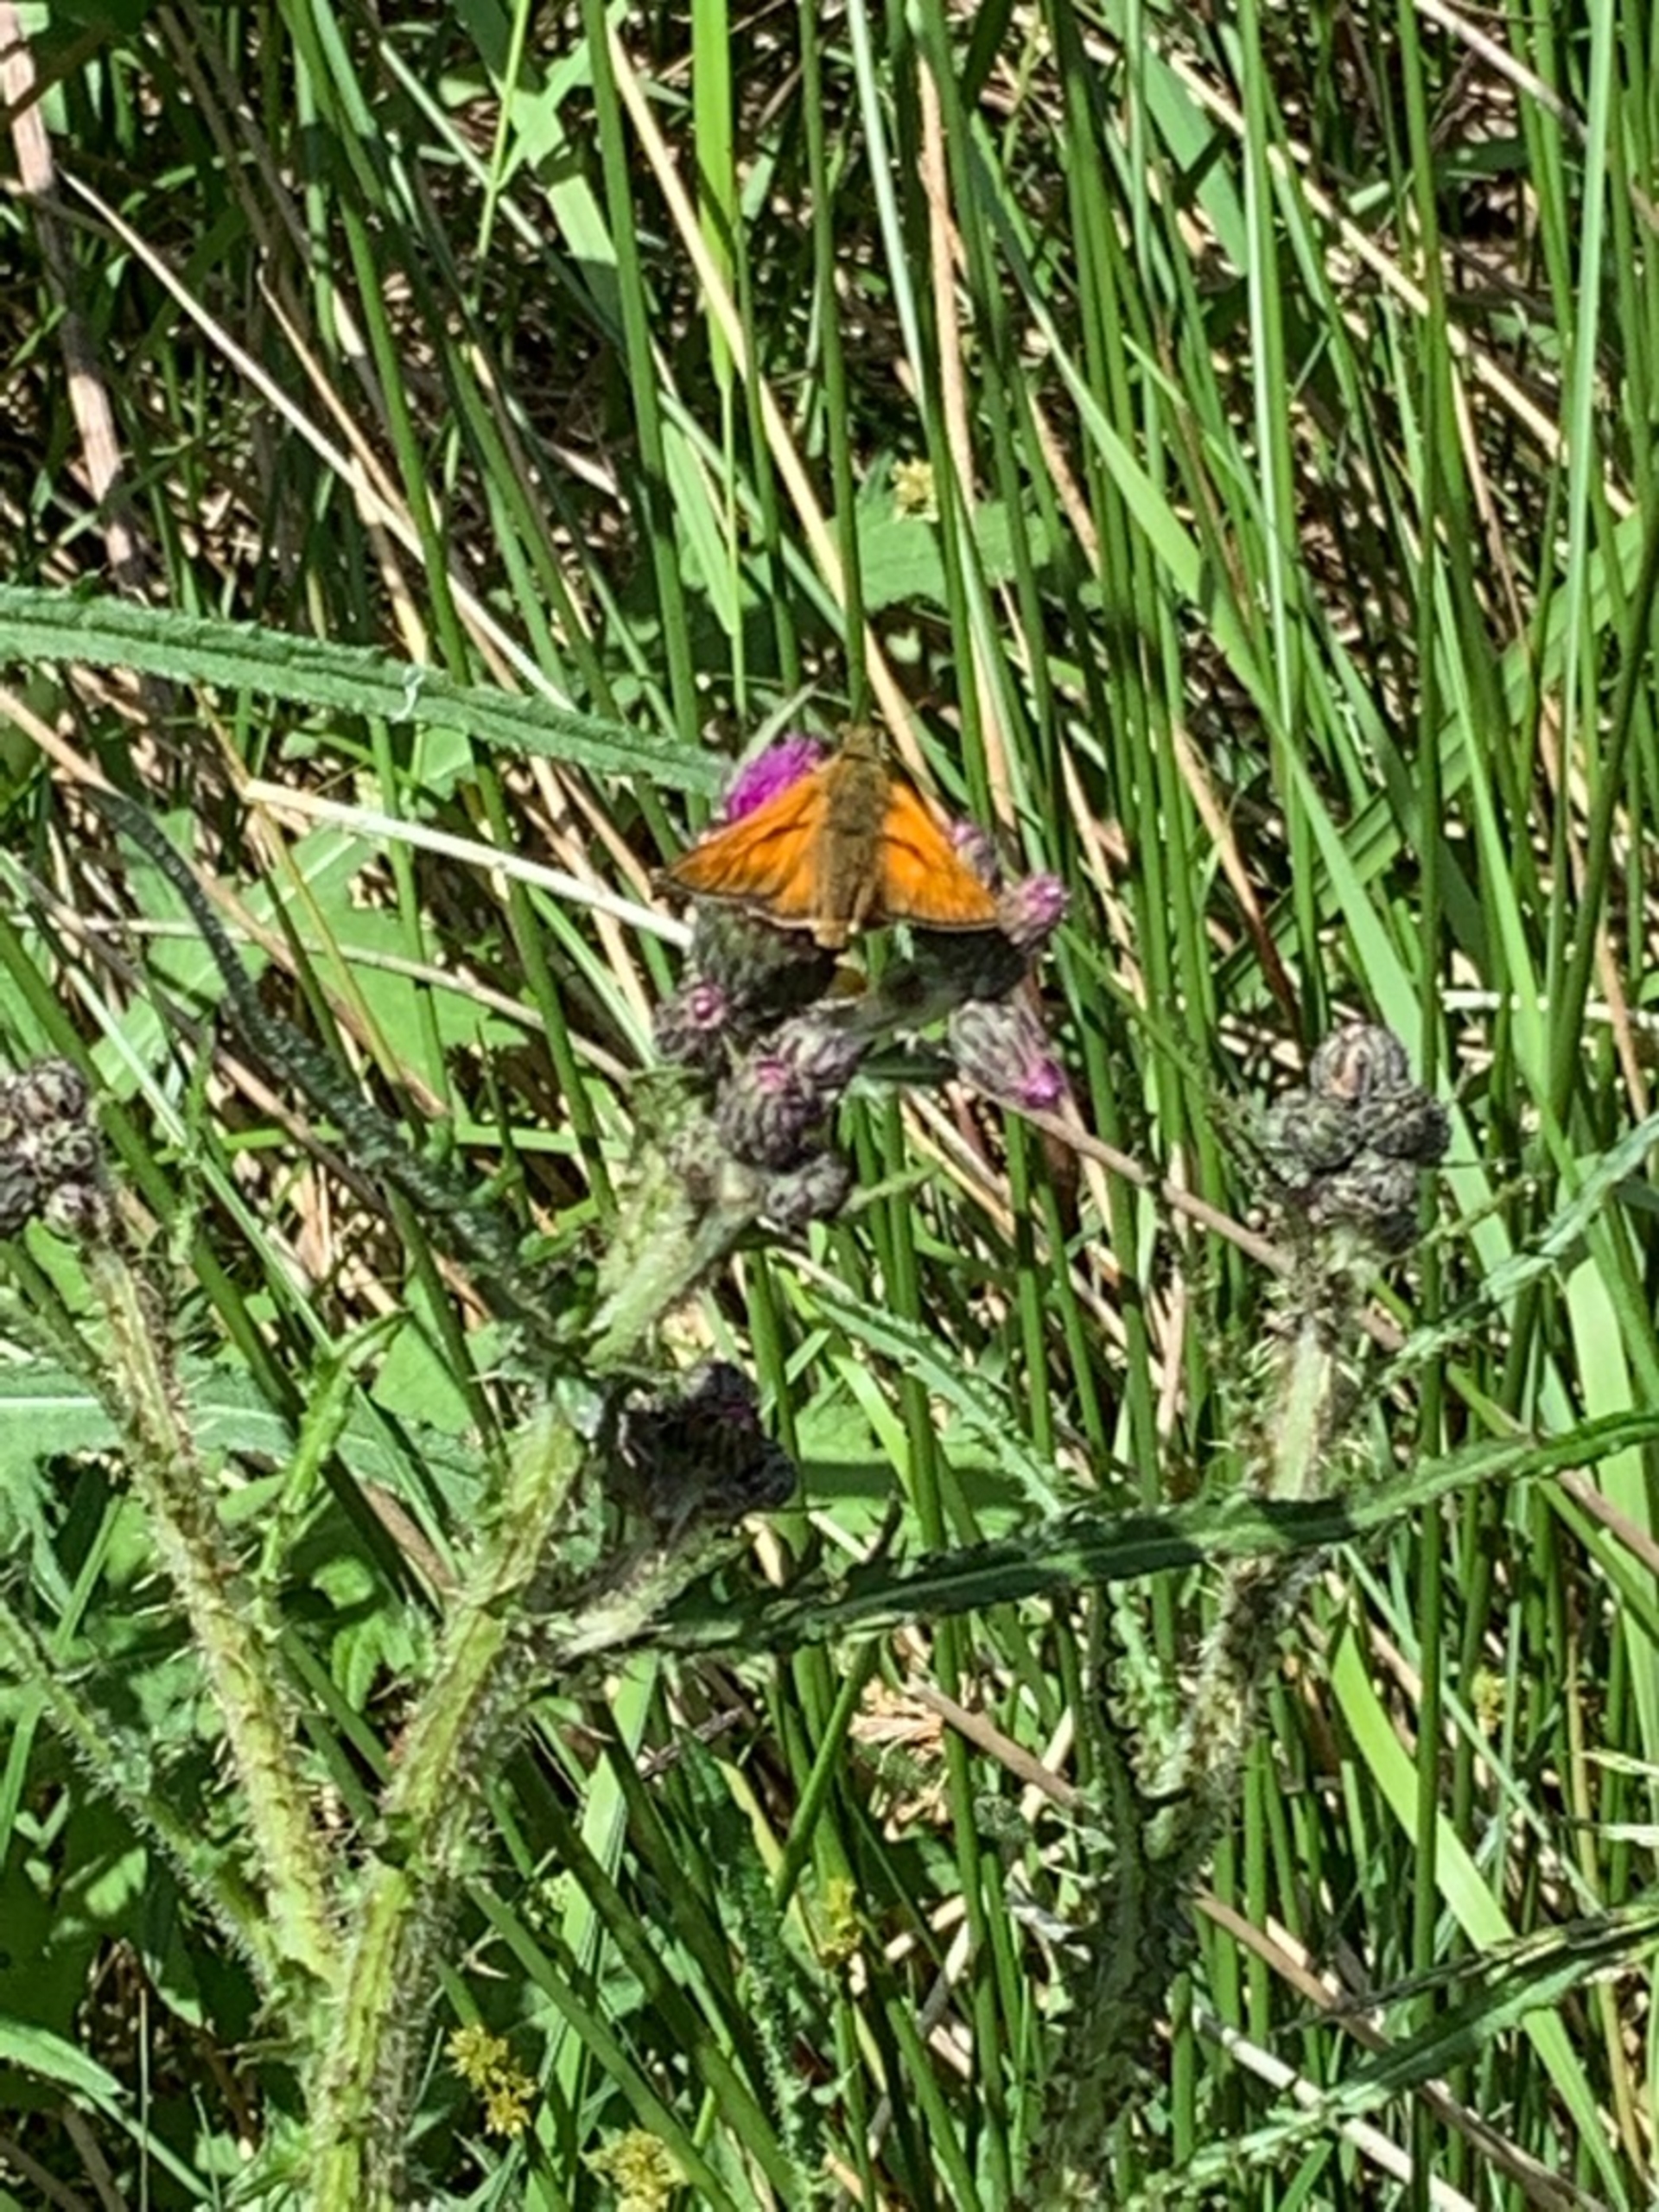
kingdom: Animalia
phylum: Arthropoda
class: Insecta
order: Lepidoptera
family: Hesperiidae
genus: Ochlodes
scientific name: Ochlodes venata
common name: Stor bredpande
